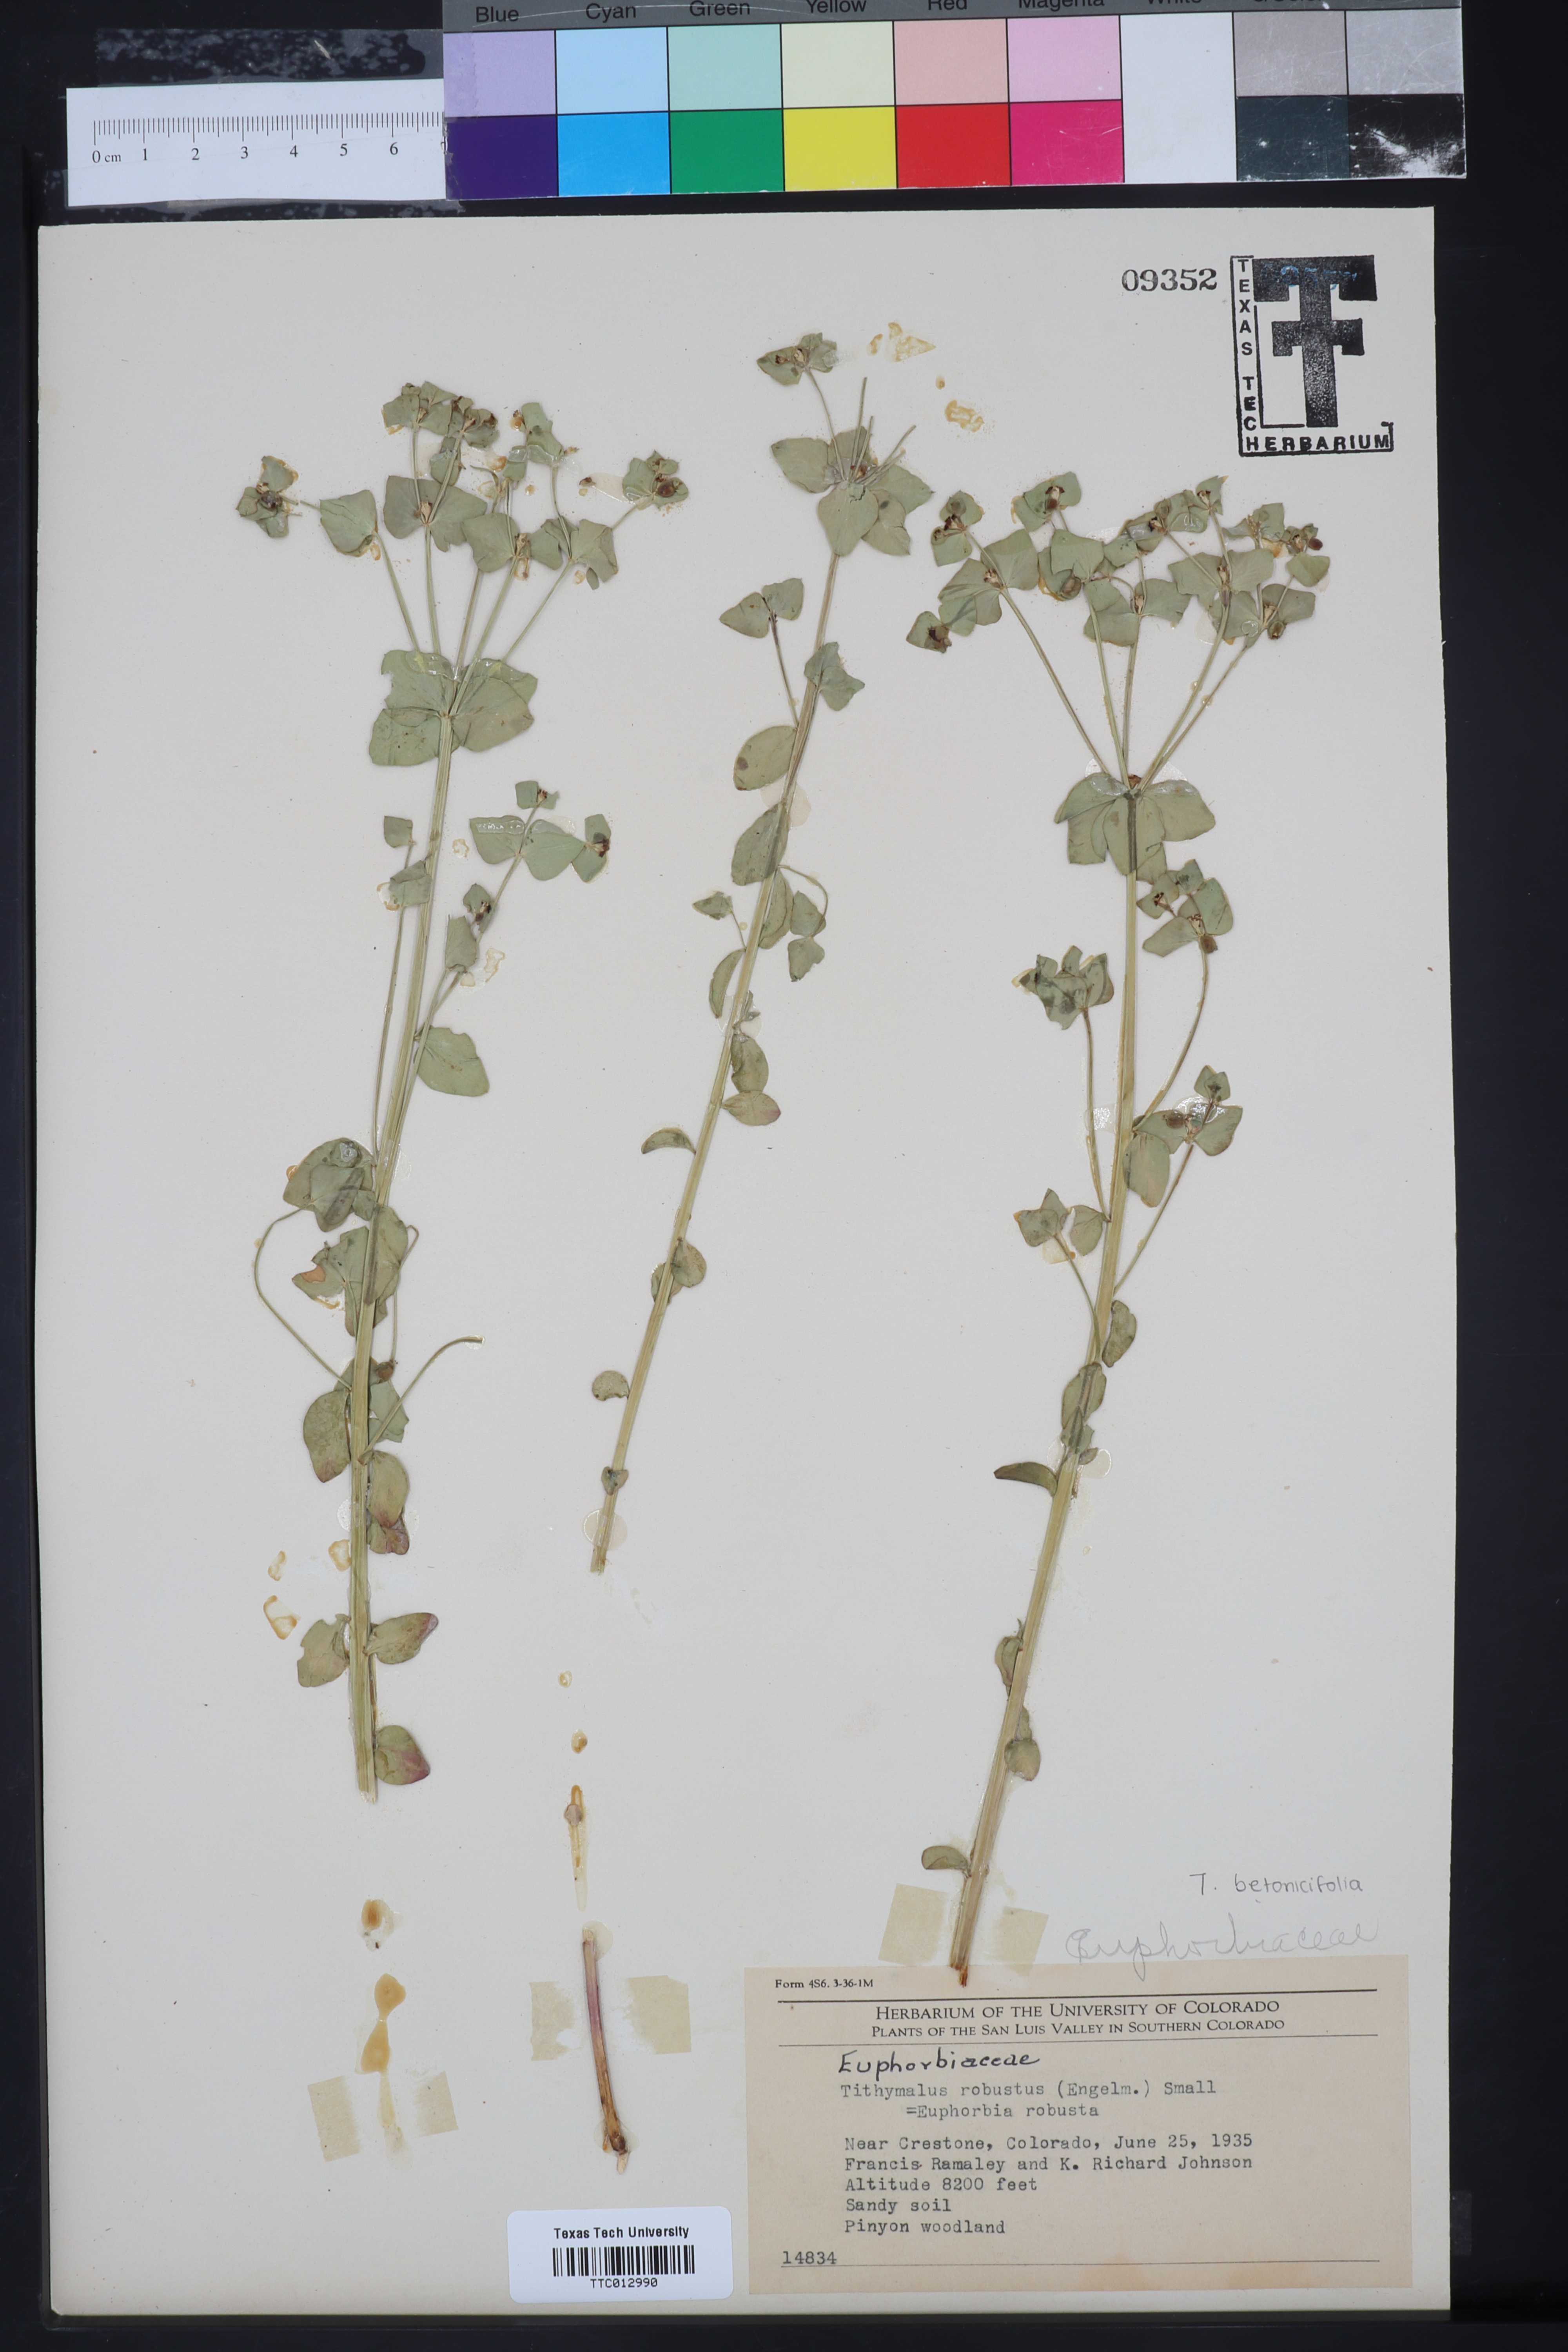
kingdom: Plantae
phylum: Tracheophyta
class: Magnoliopsida
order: Malpighiales
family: Euphorbiaceae
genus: Euphorbia
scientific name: Euphorbia brachycera
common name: Shorthorn spurge
